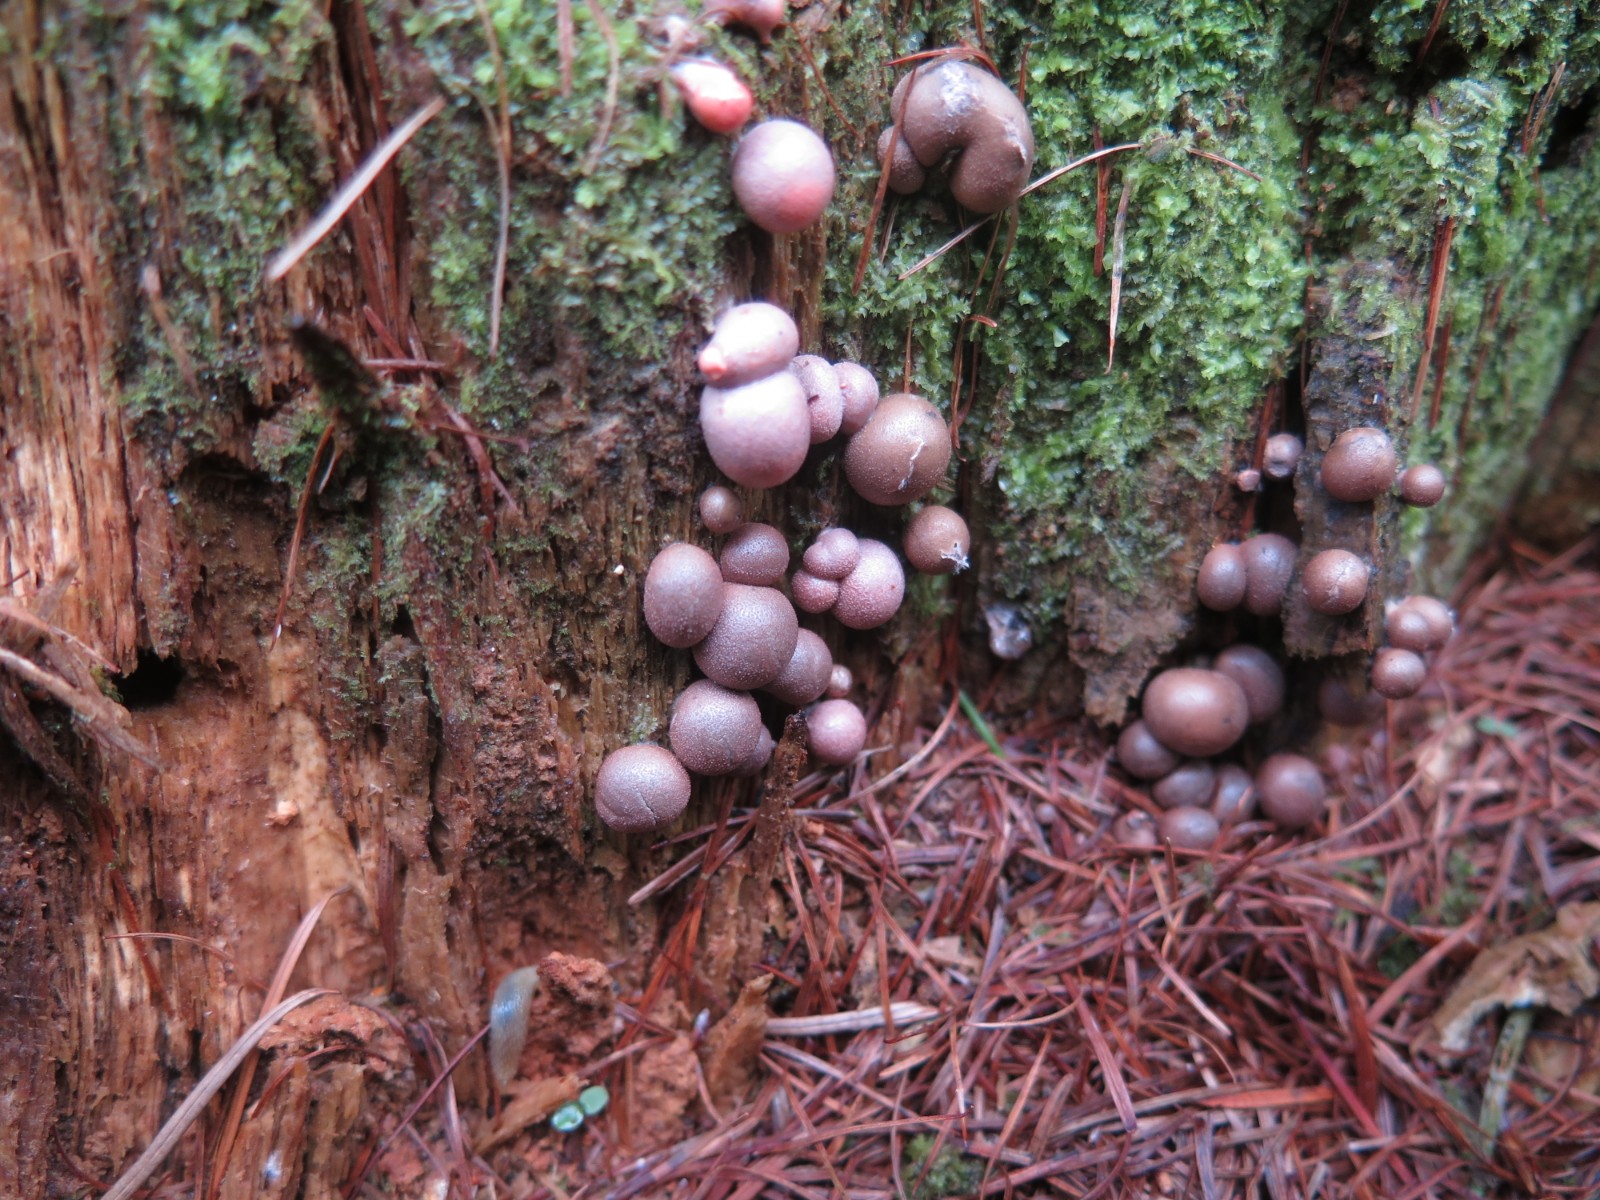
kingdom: Protozoa
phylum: Mycetozoa
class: Myxomycetes
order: Cribrariales
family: Tubiferaceae
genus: Lycogala
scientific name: Lycogala epidendrum
